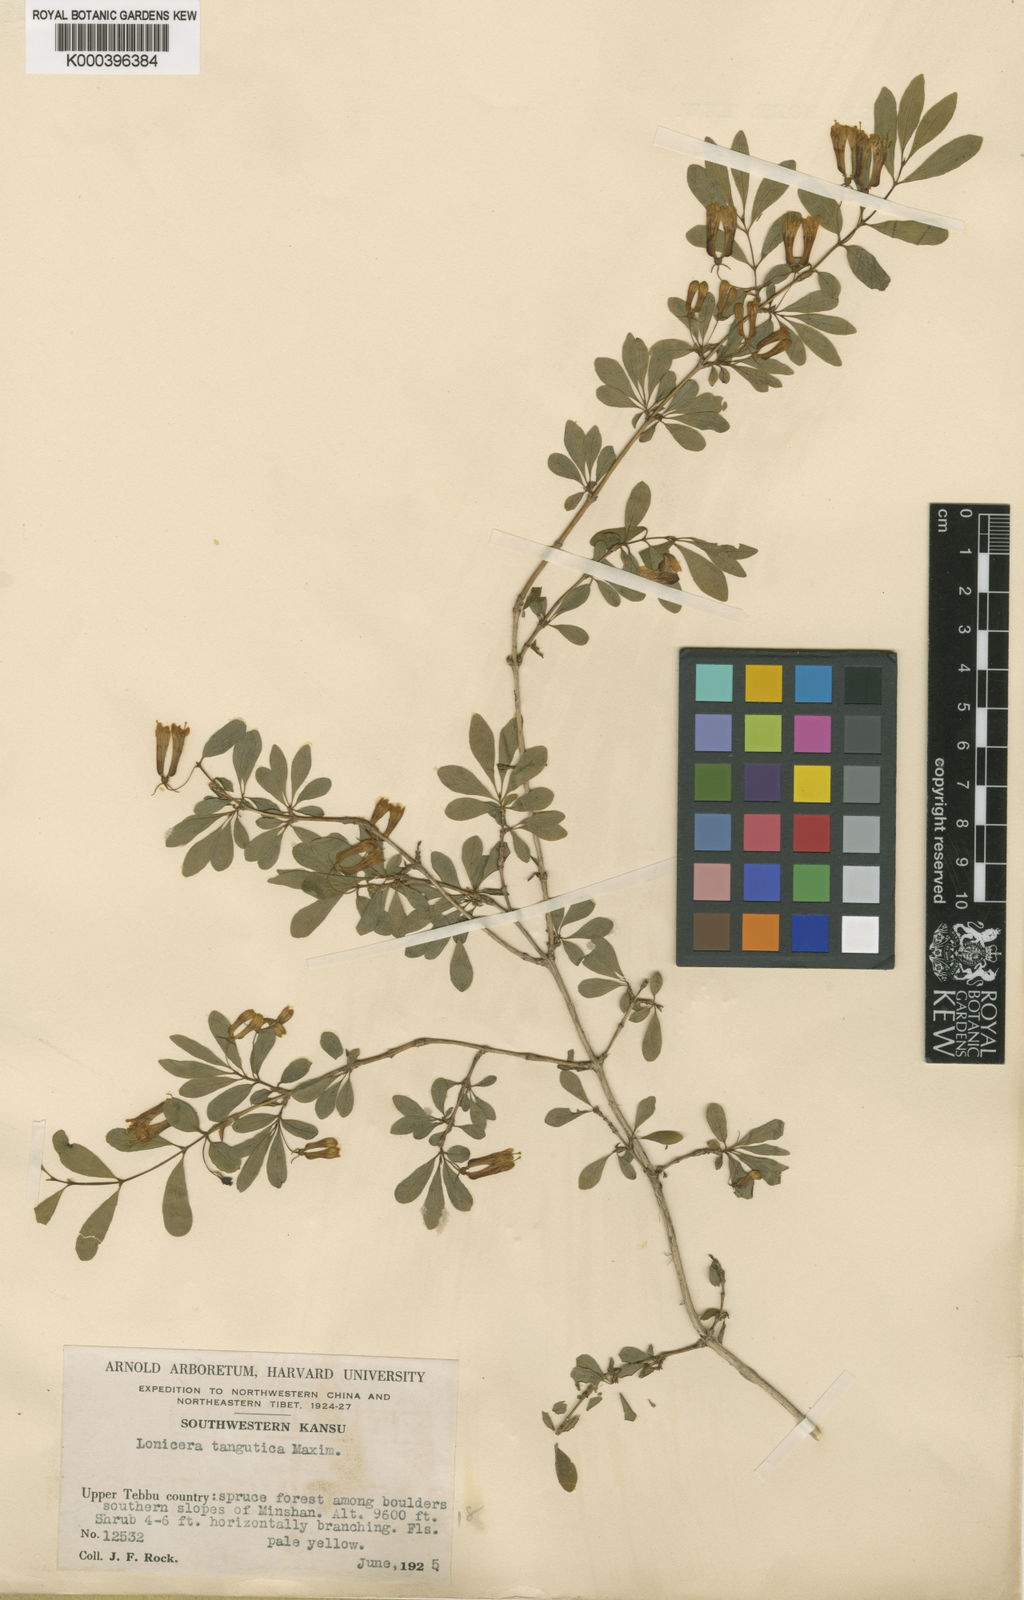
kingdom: Plantae
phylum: Tracheophyta
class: Magnoliopsida
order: Dipsacales
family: Caprifoliaceae
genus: Lonicera
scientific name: Lonicera tangutica
